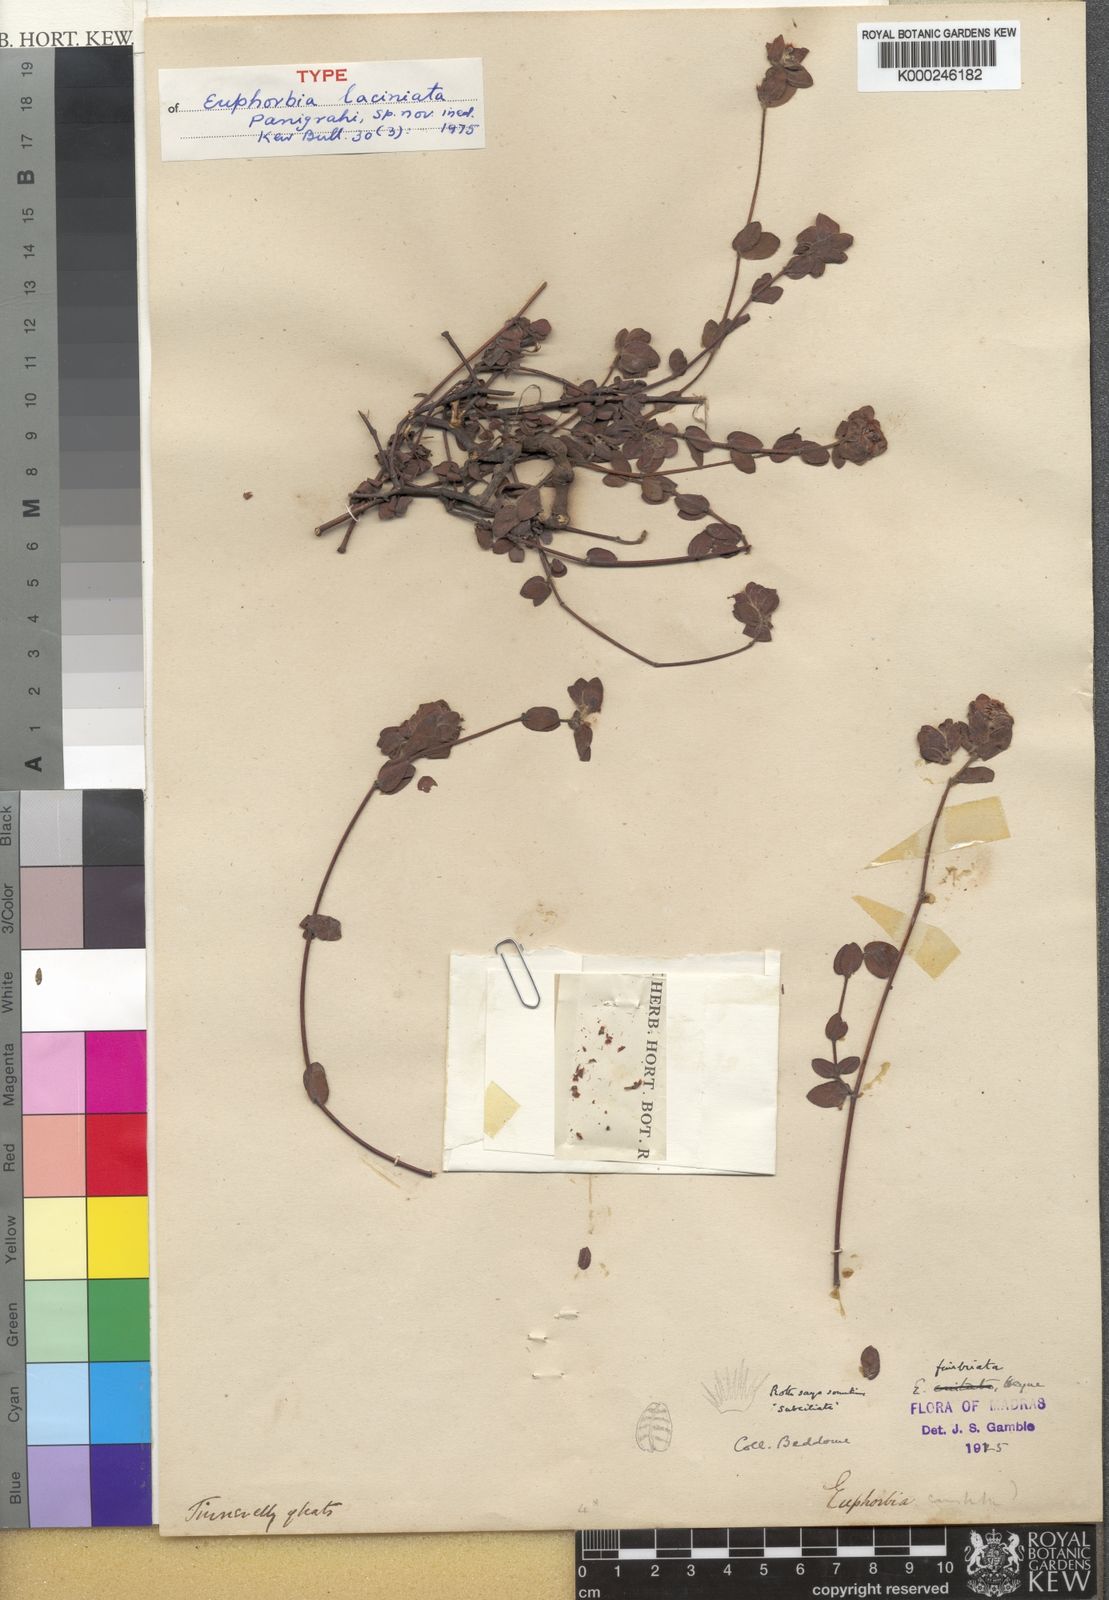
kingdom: Plantae
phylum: Tracheophyta
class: Magnoliopsida
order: Malpighiales
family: Euphorbiaceae
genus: Euphorbia
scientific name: Euphorbia laciniata
